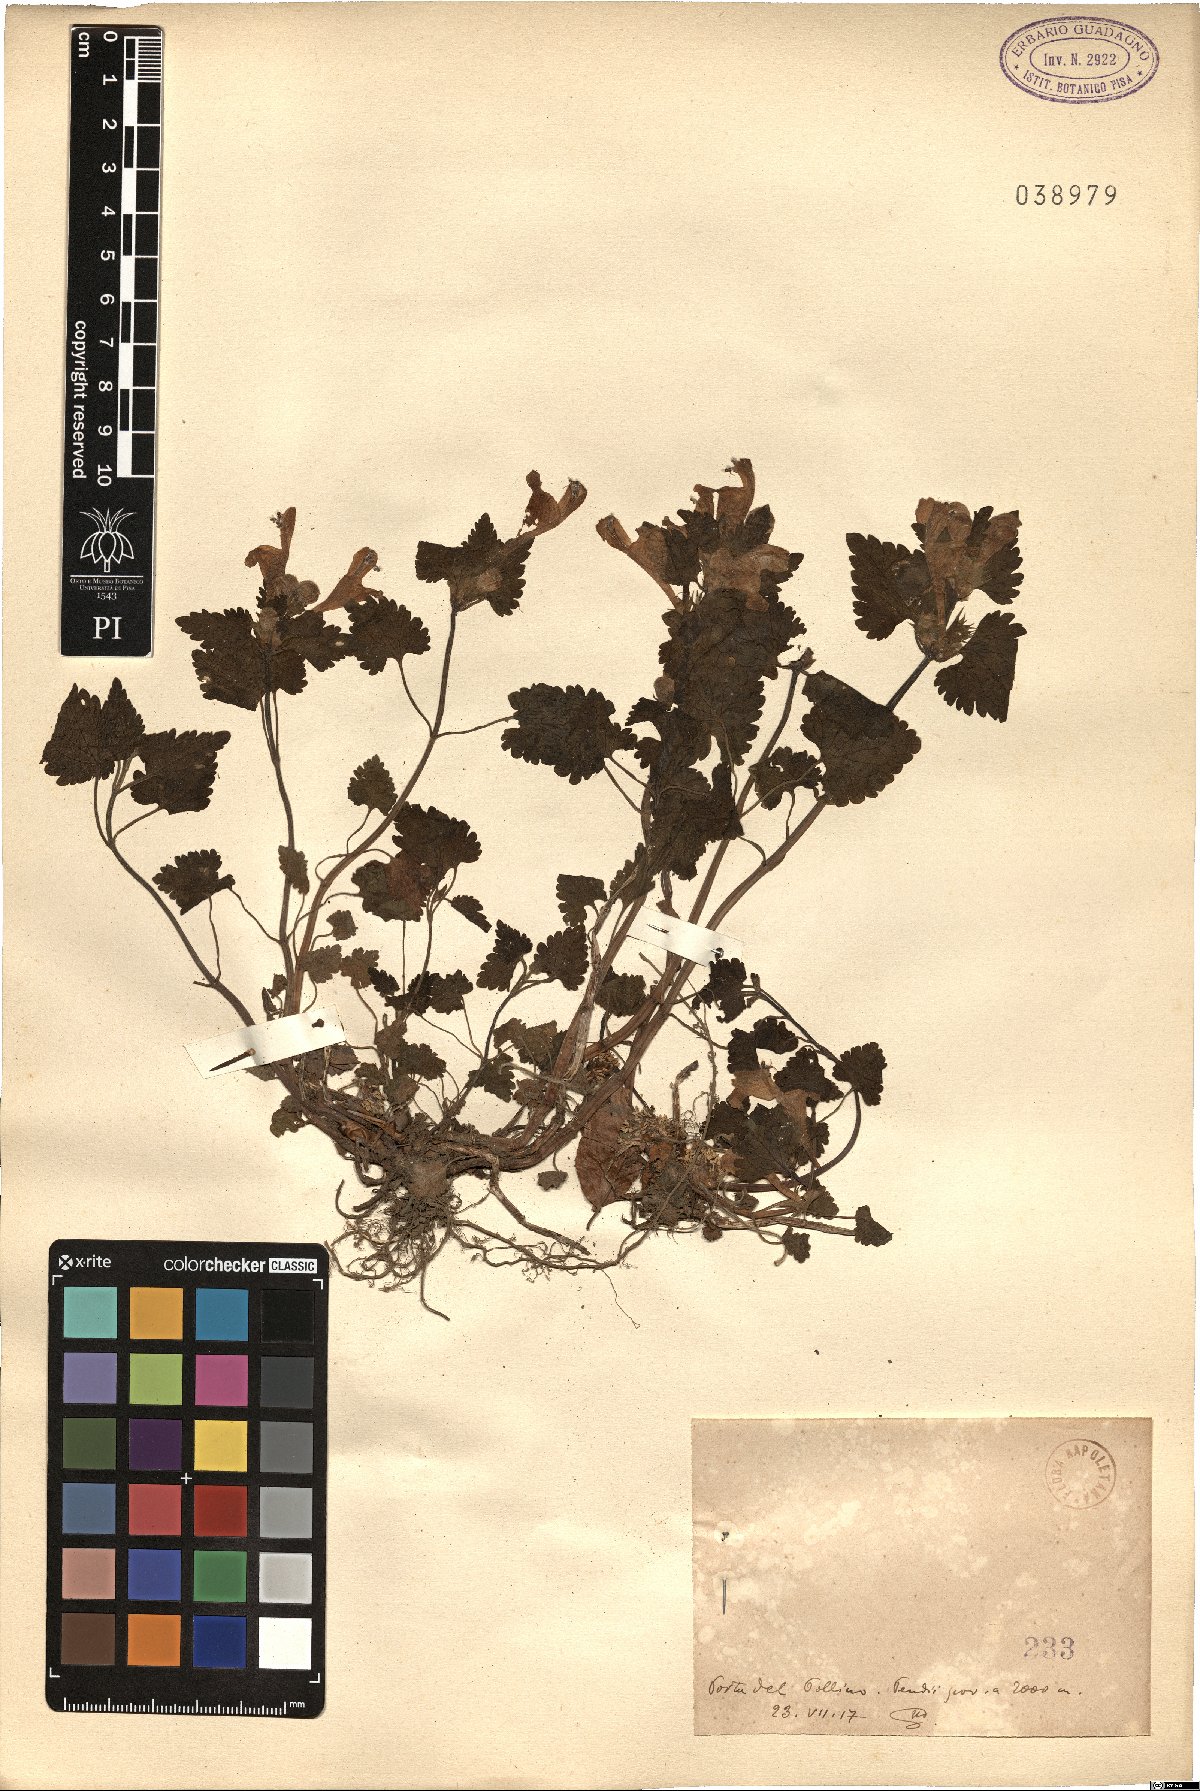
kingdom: Plantae
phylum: Tracheophyta
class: Magnoliopsida
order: Lamiales
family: Lamiaceae
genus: Lamium
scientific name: Lamium
